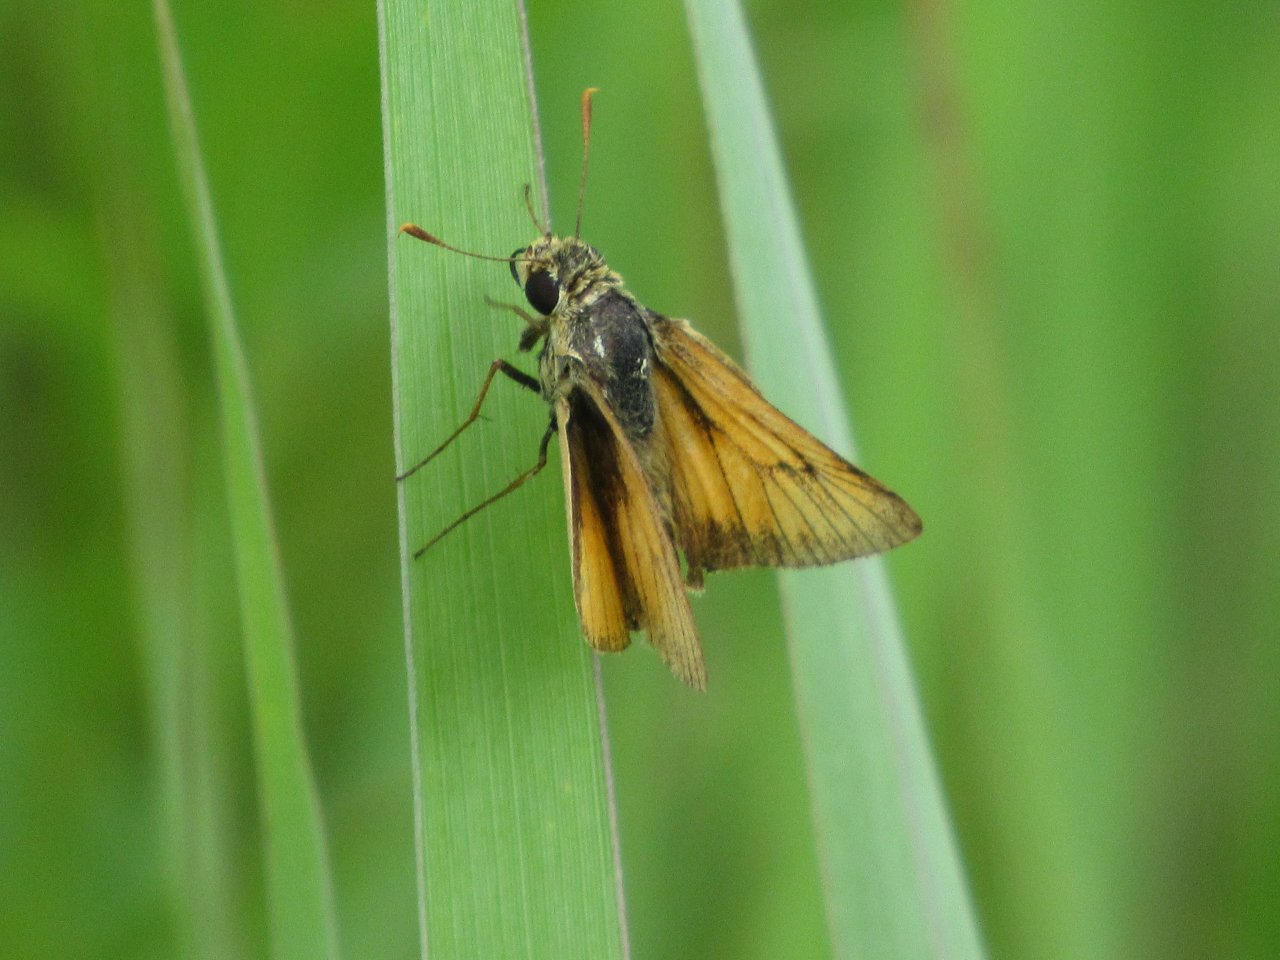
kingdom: Animalia
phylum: Arthropoda
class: Insecta
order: Lepidoptera
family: Hesperiidae
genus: Atrytone
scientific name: Atrytone delaware
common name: Delaware Skipper
